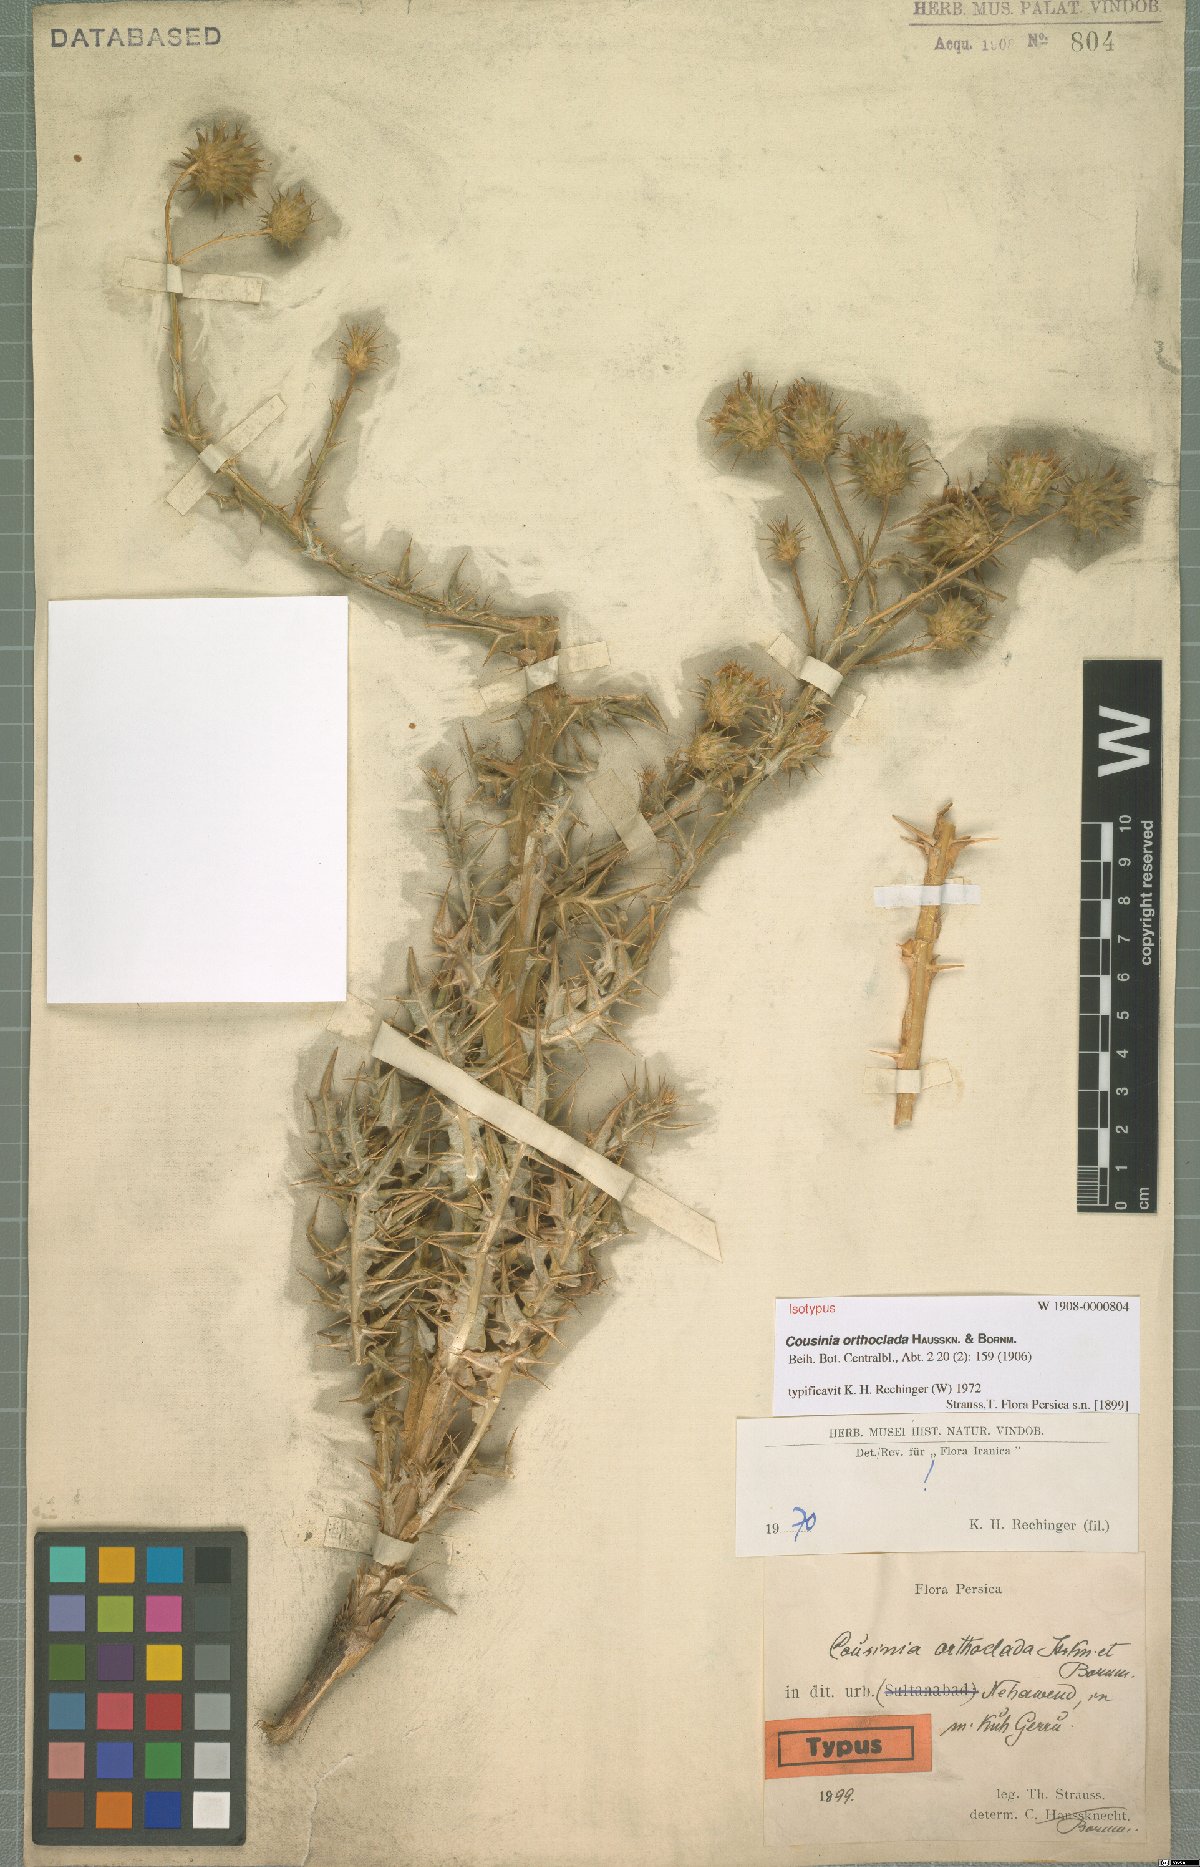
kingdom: Plantae
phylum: Tracheophyta
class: Magnoliopsida
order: Asterales
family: Asteraceae
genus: Cousinia
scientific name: Cousinia orthoclada
